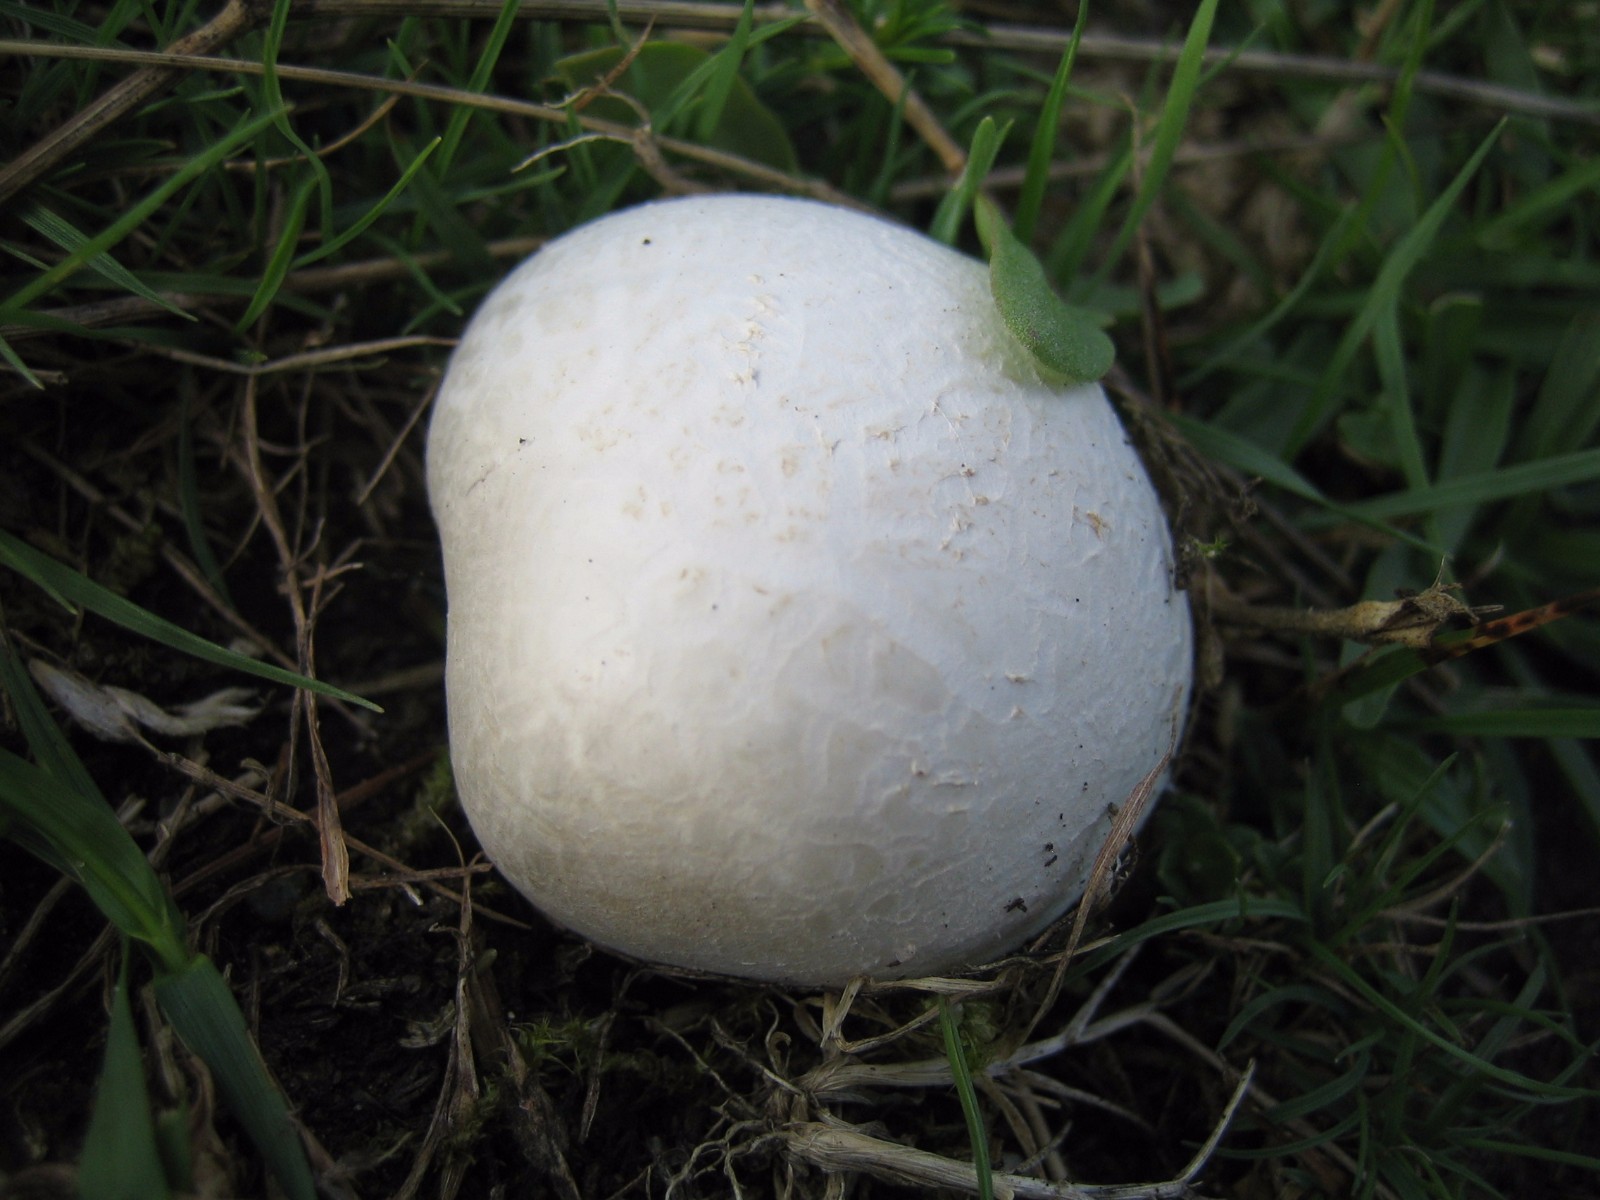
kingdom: Fungi
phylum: Basidiomycota
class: Agaricomycetes
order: Agaricales
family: Lycoperdaceae
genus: Bovista
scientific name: Bovista
